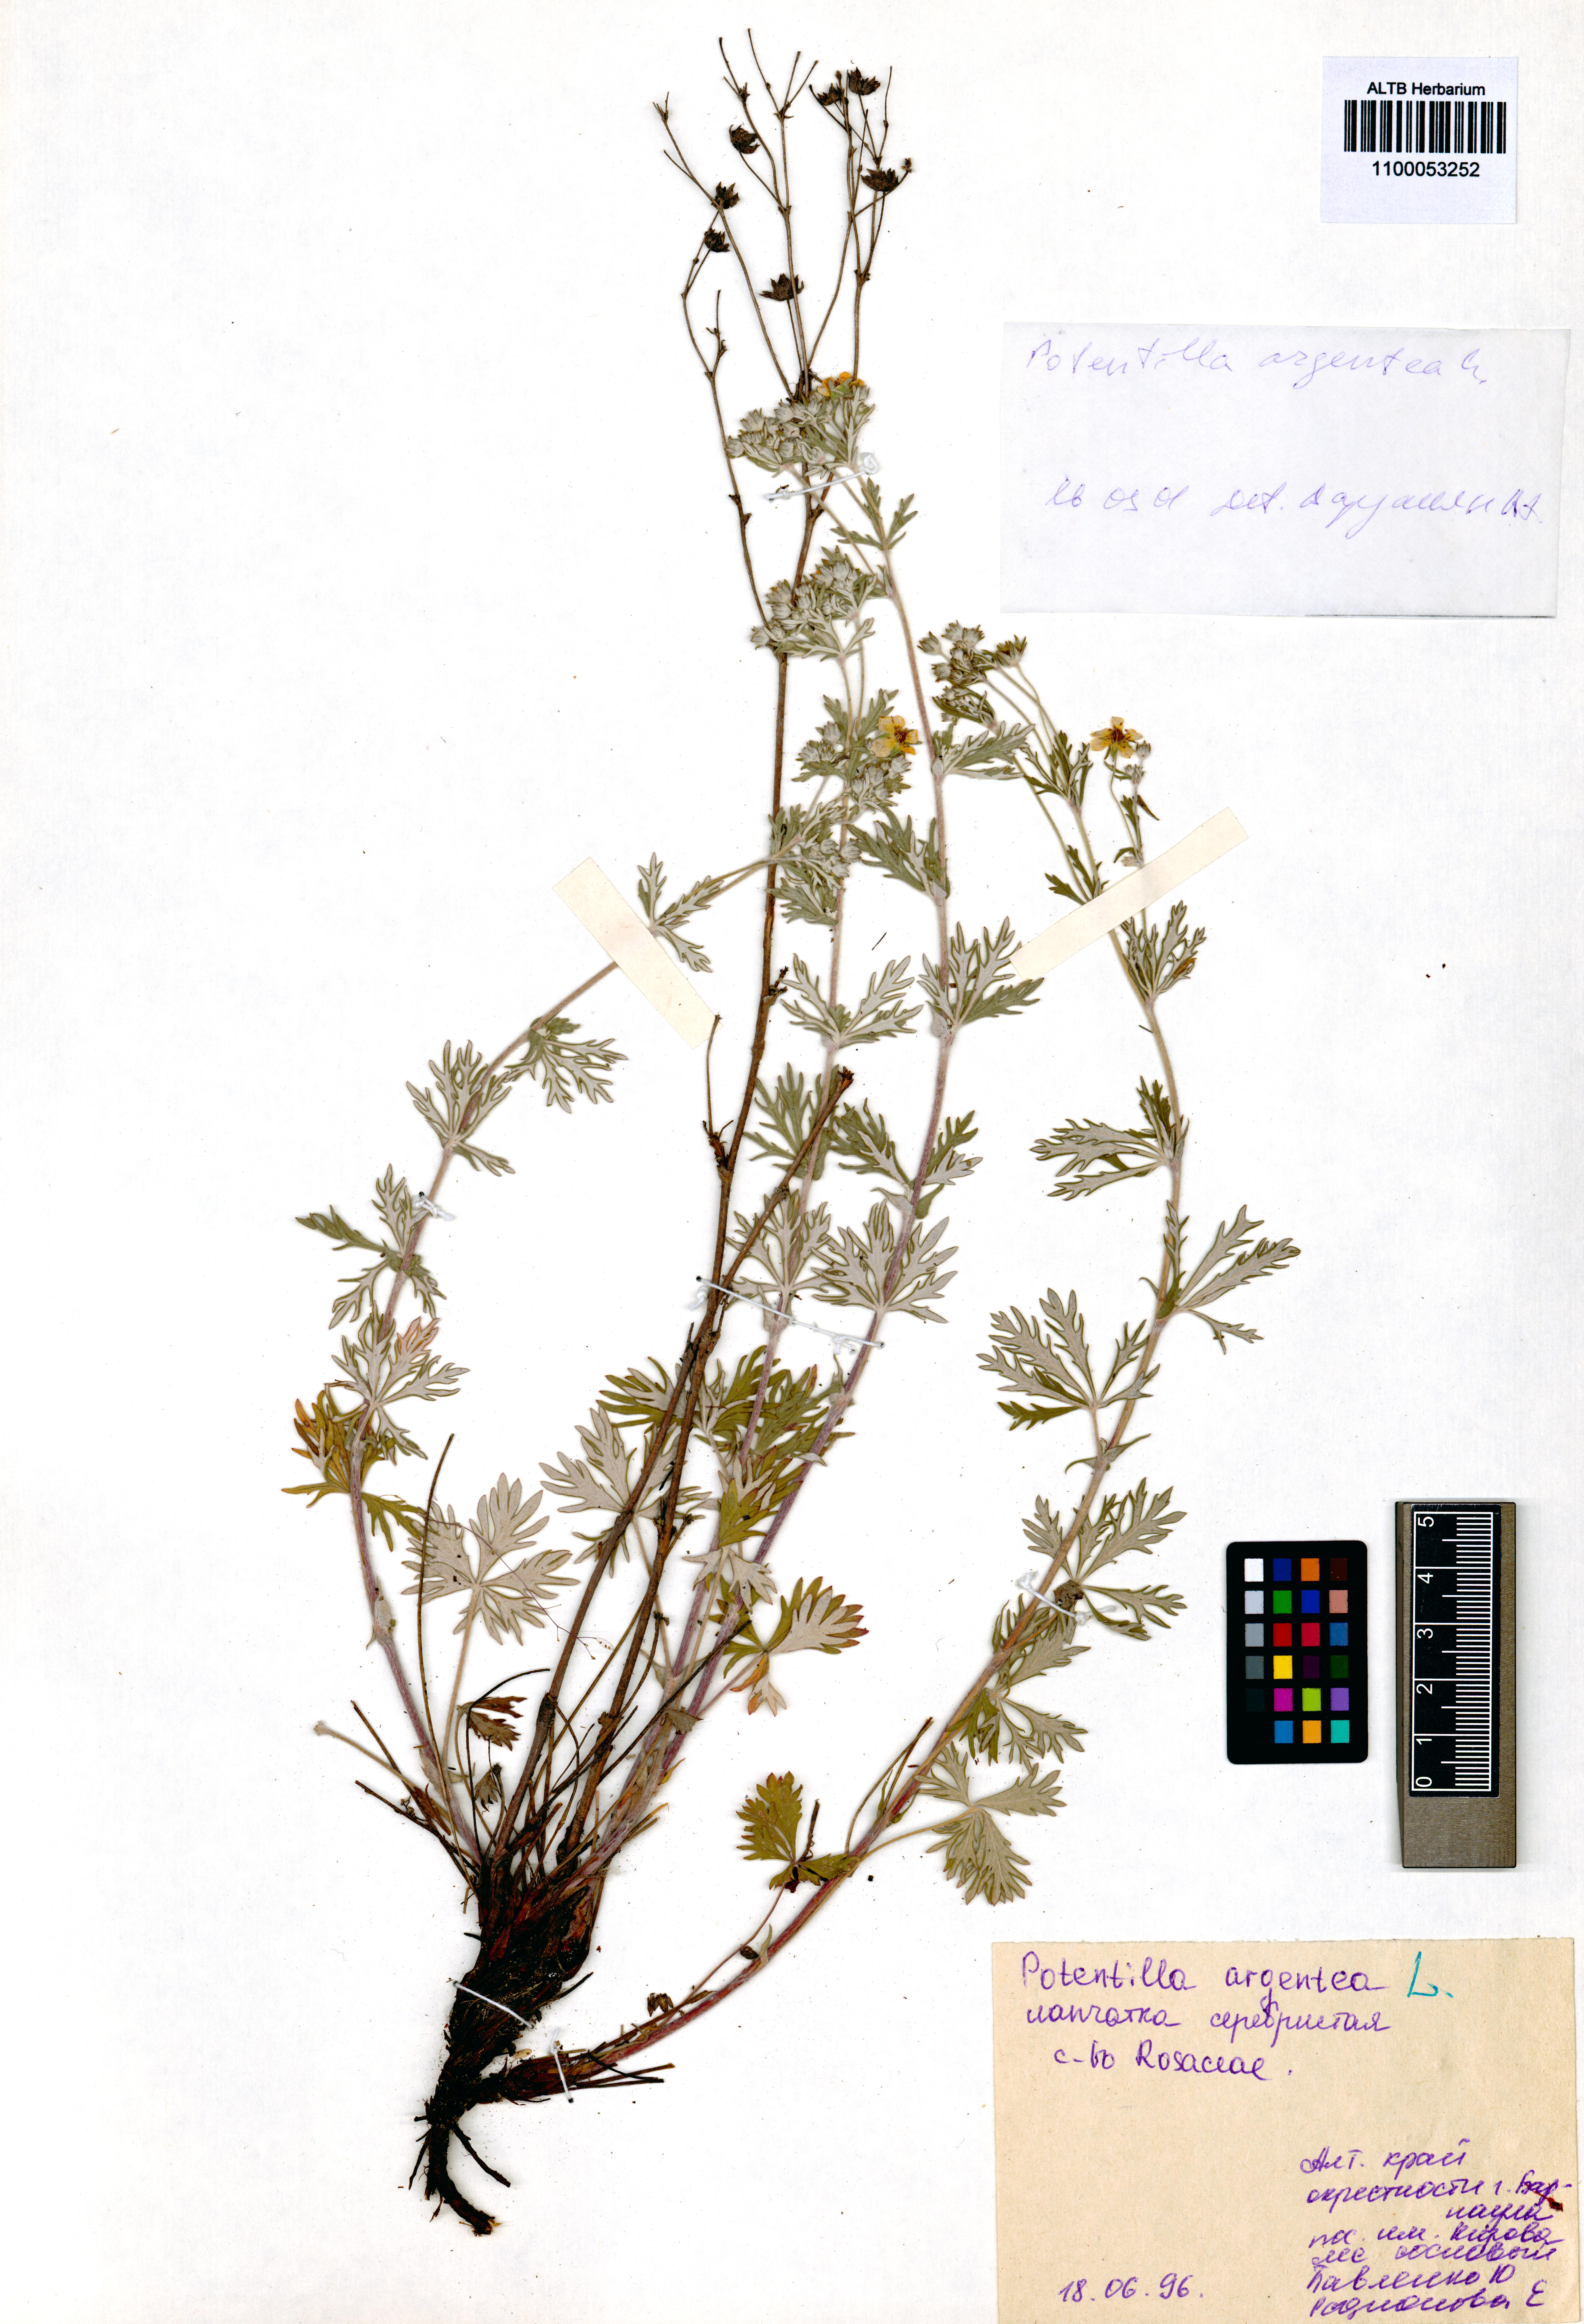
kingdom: Plantae
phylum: Tracheophyta
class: Magnoliopsida
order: Rosales
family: Rosaceae
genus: Potentilla
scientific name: Potentilla argentea
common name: Hoary cinquefoil
